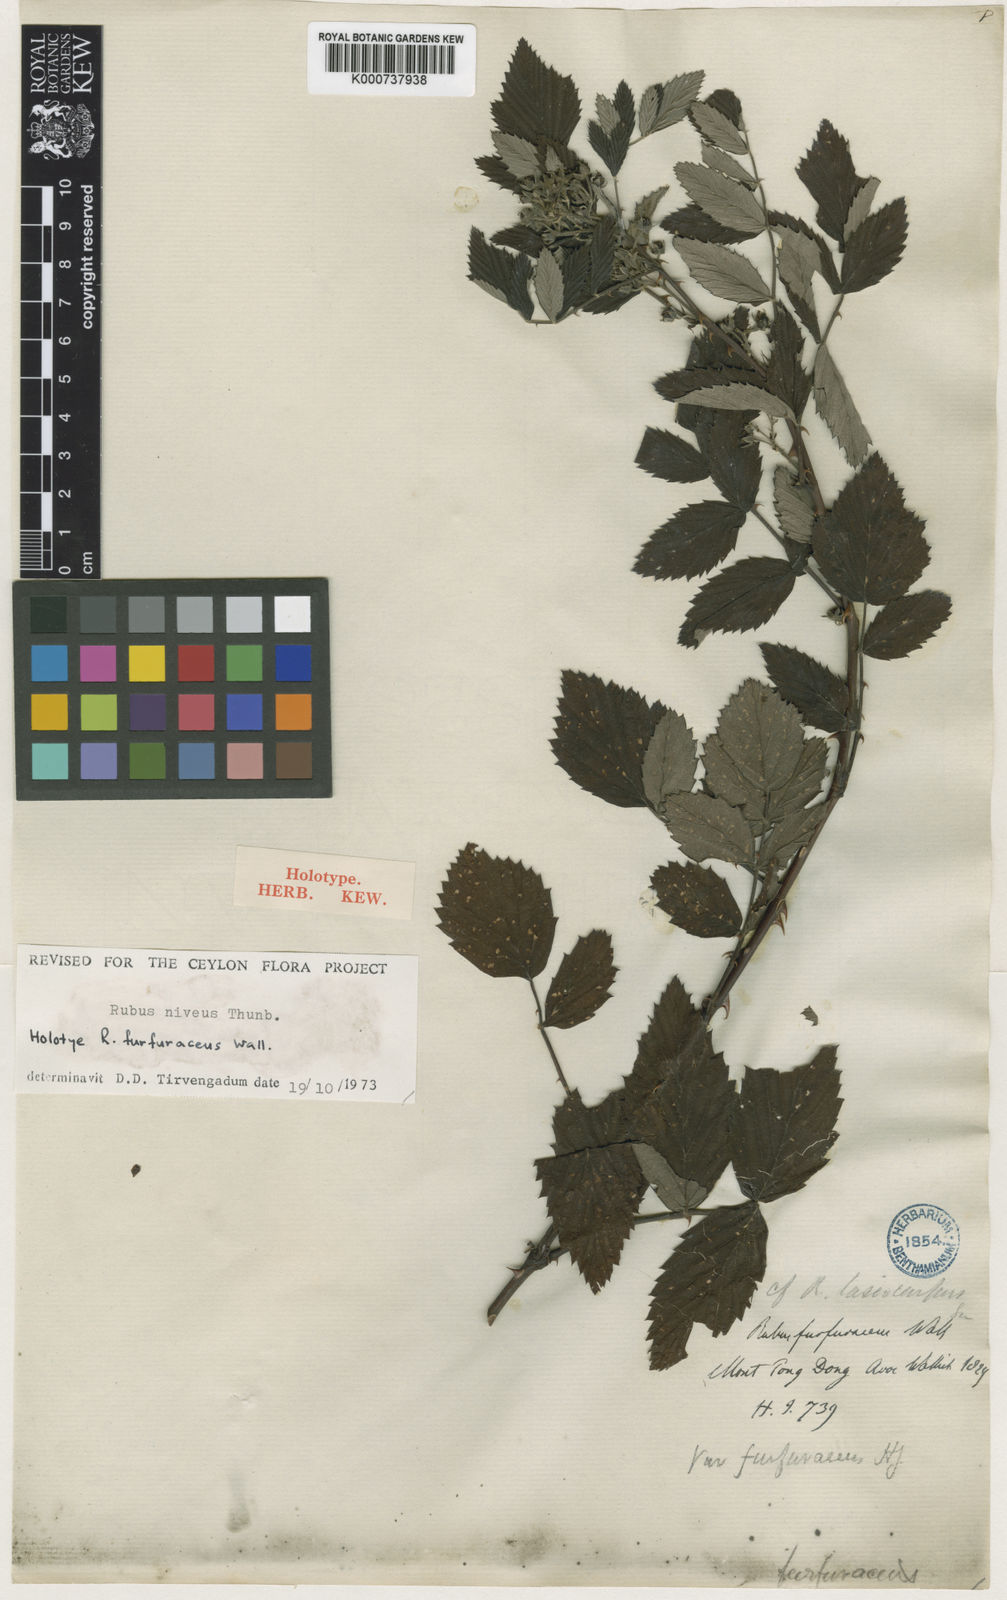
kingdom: Plantae
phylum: Tracheophyta
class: Magnoliopsida
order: Rosales
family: Rosaceae
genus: Rubus
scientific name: Rubus niveus
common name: Snowpeaks raspberry
